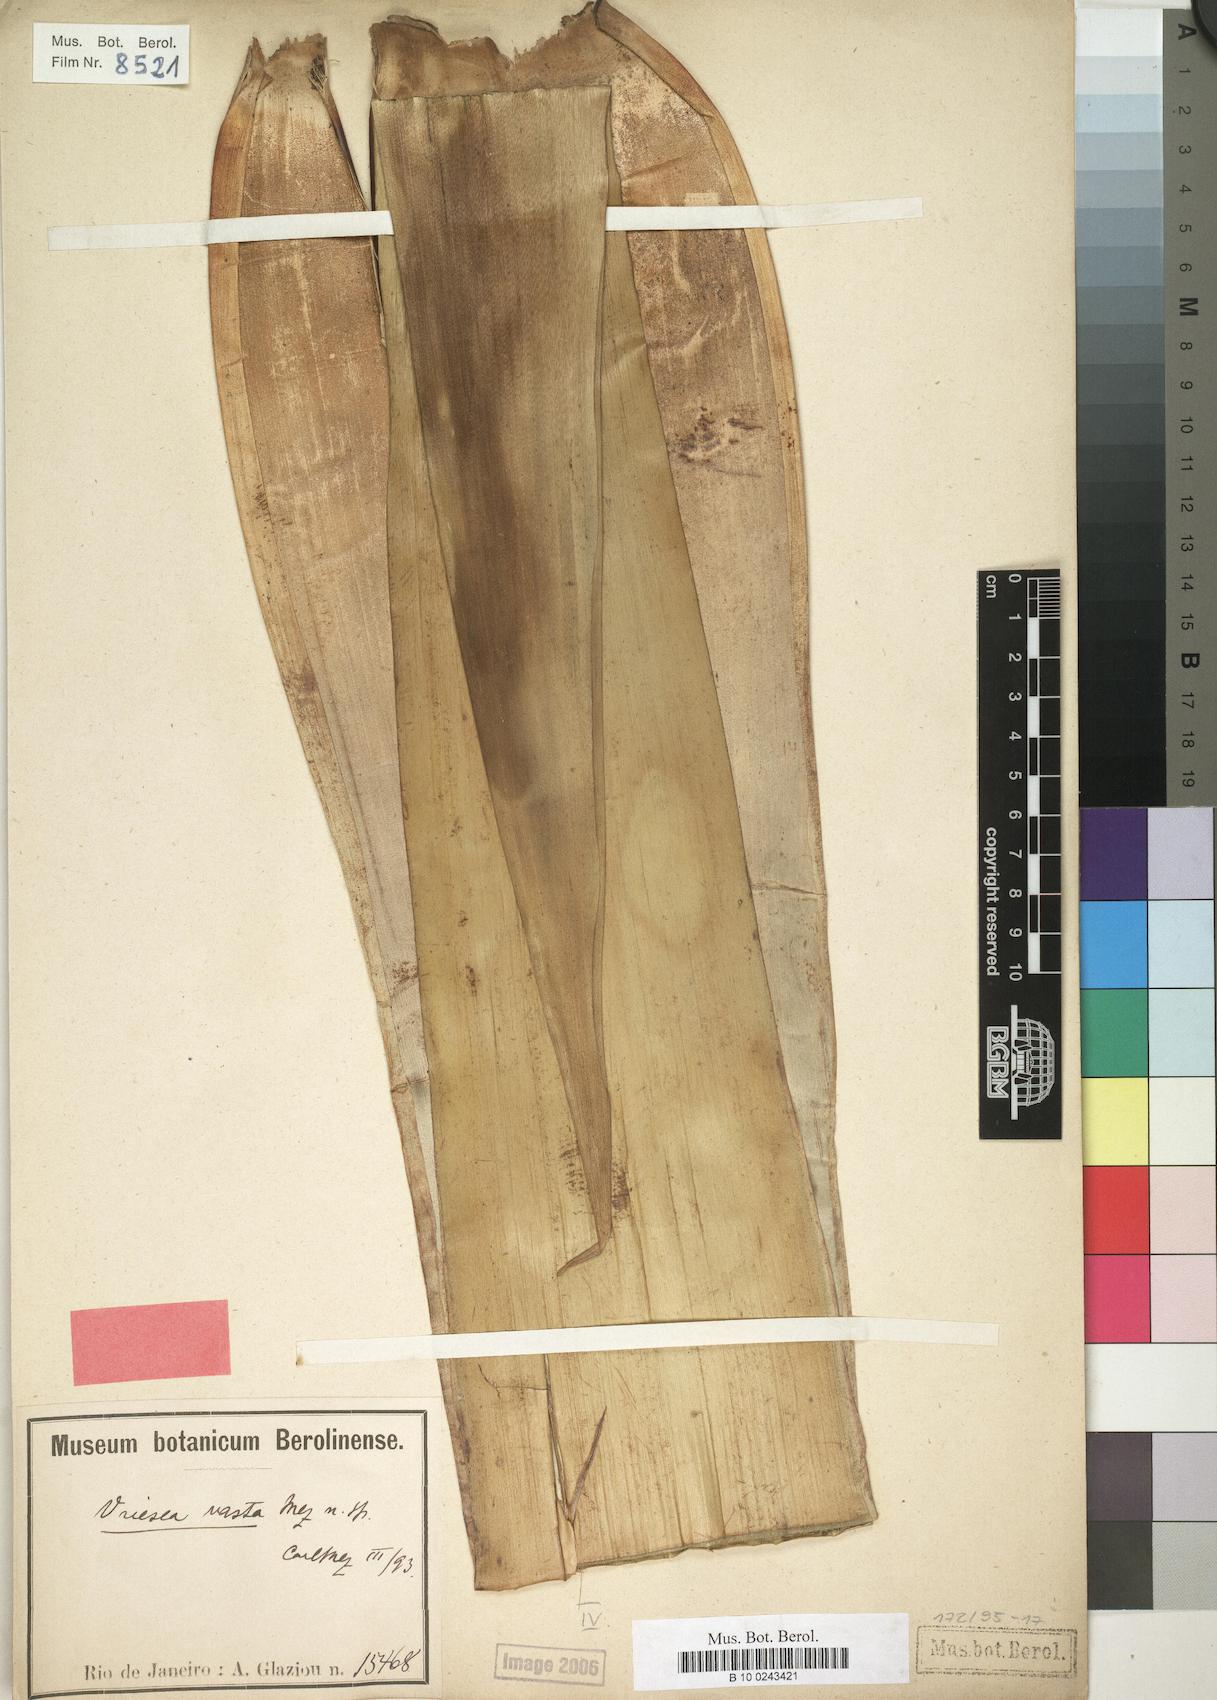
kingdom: Plantae
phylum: Tracheophyta
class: Liliopsida
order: Poales
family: Bromeliaceae
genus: Alcantarea
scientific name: Alcantarea glaziouana
